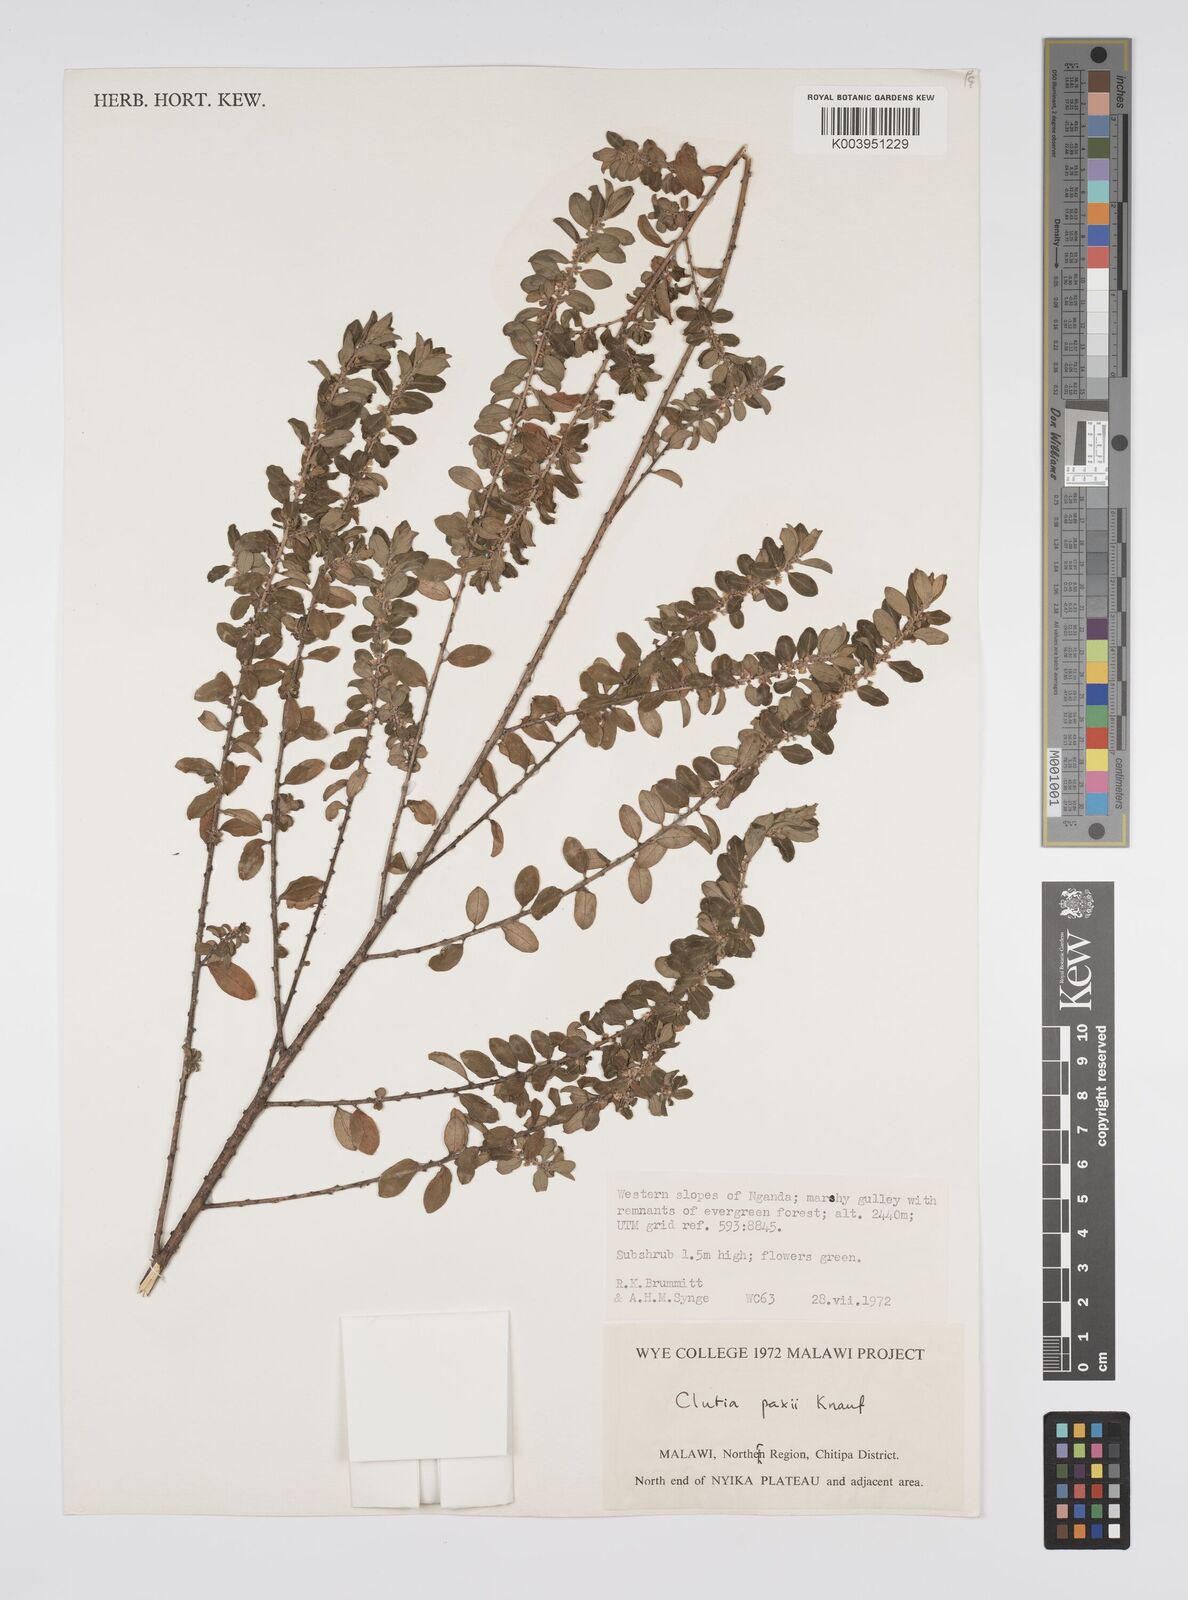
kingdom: Plantae
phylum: Tracheophyta
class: Magnoliopsida
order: Malpighiales
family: Peraceae
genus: Clutia
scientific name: Clutia paxii
